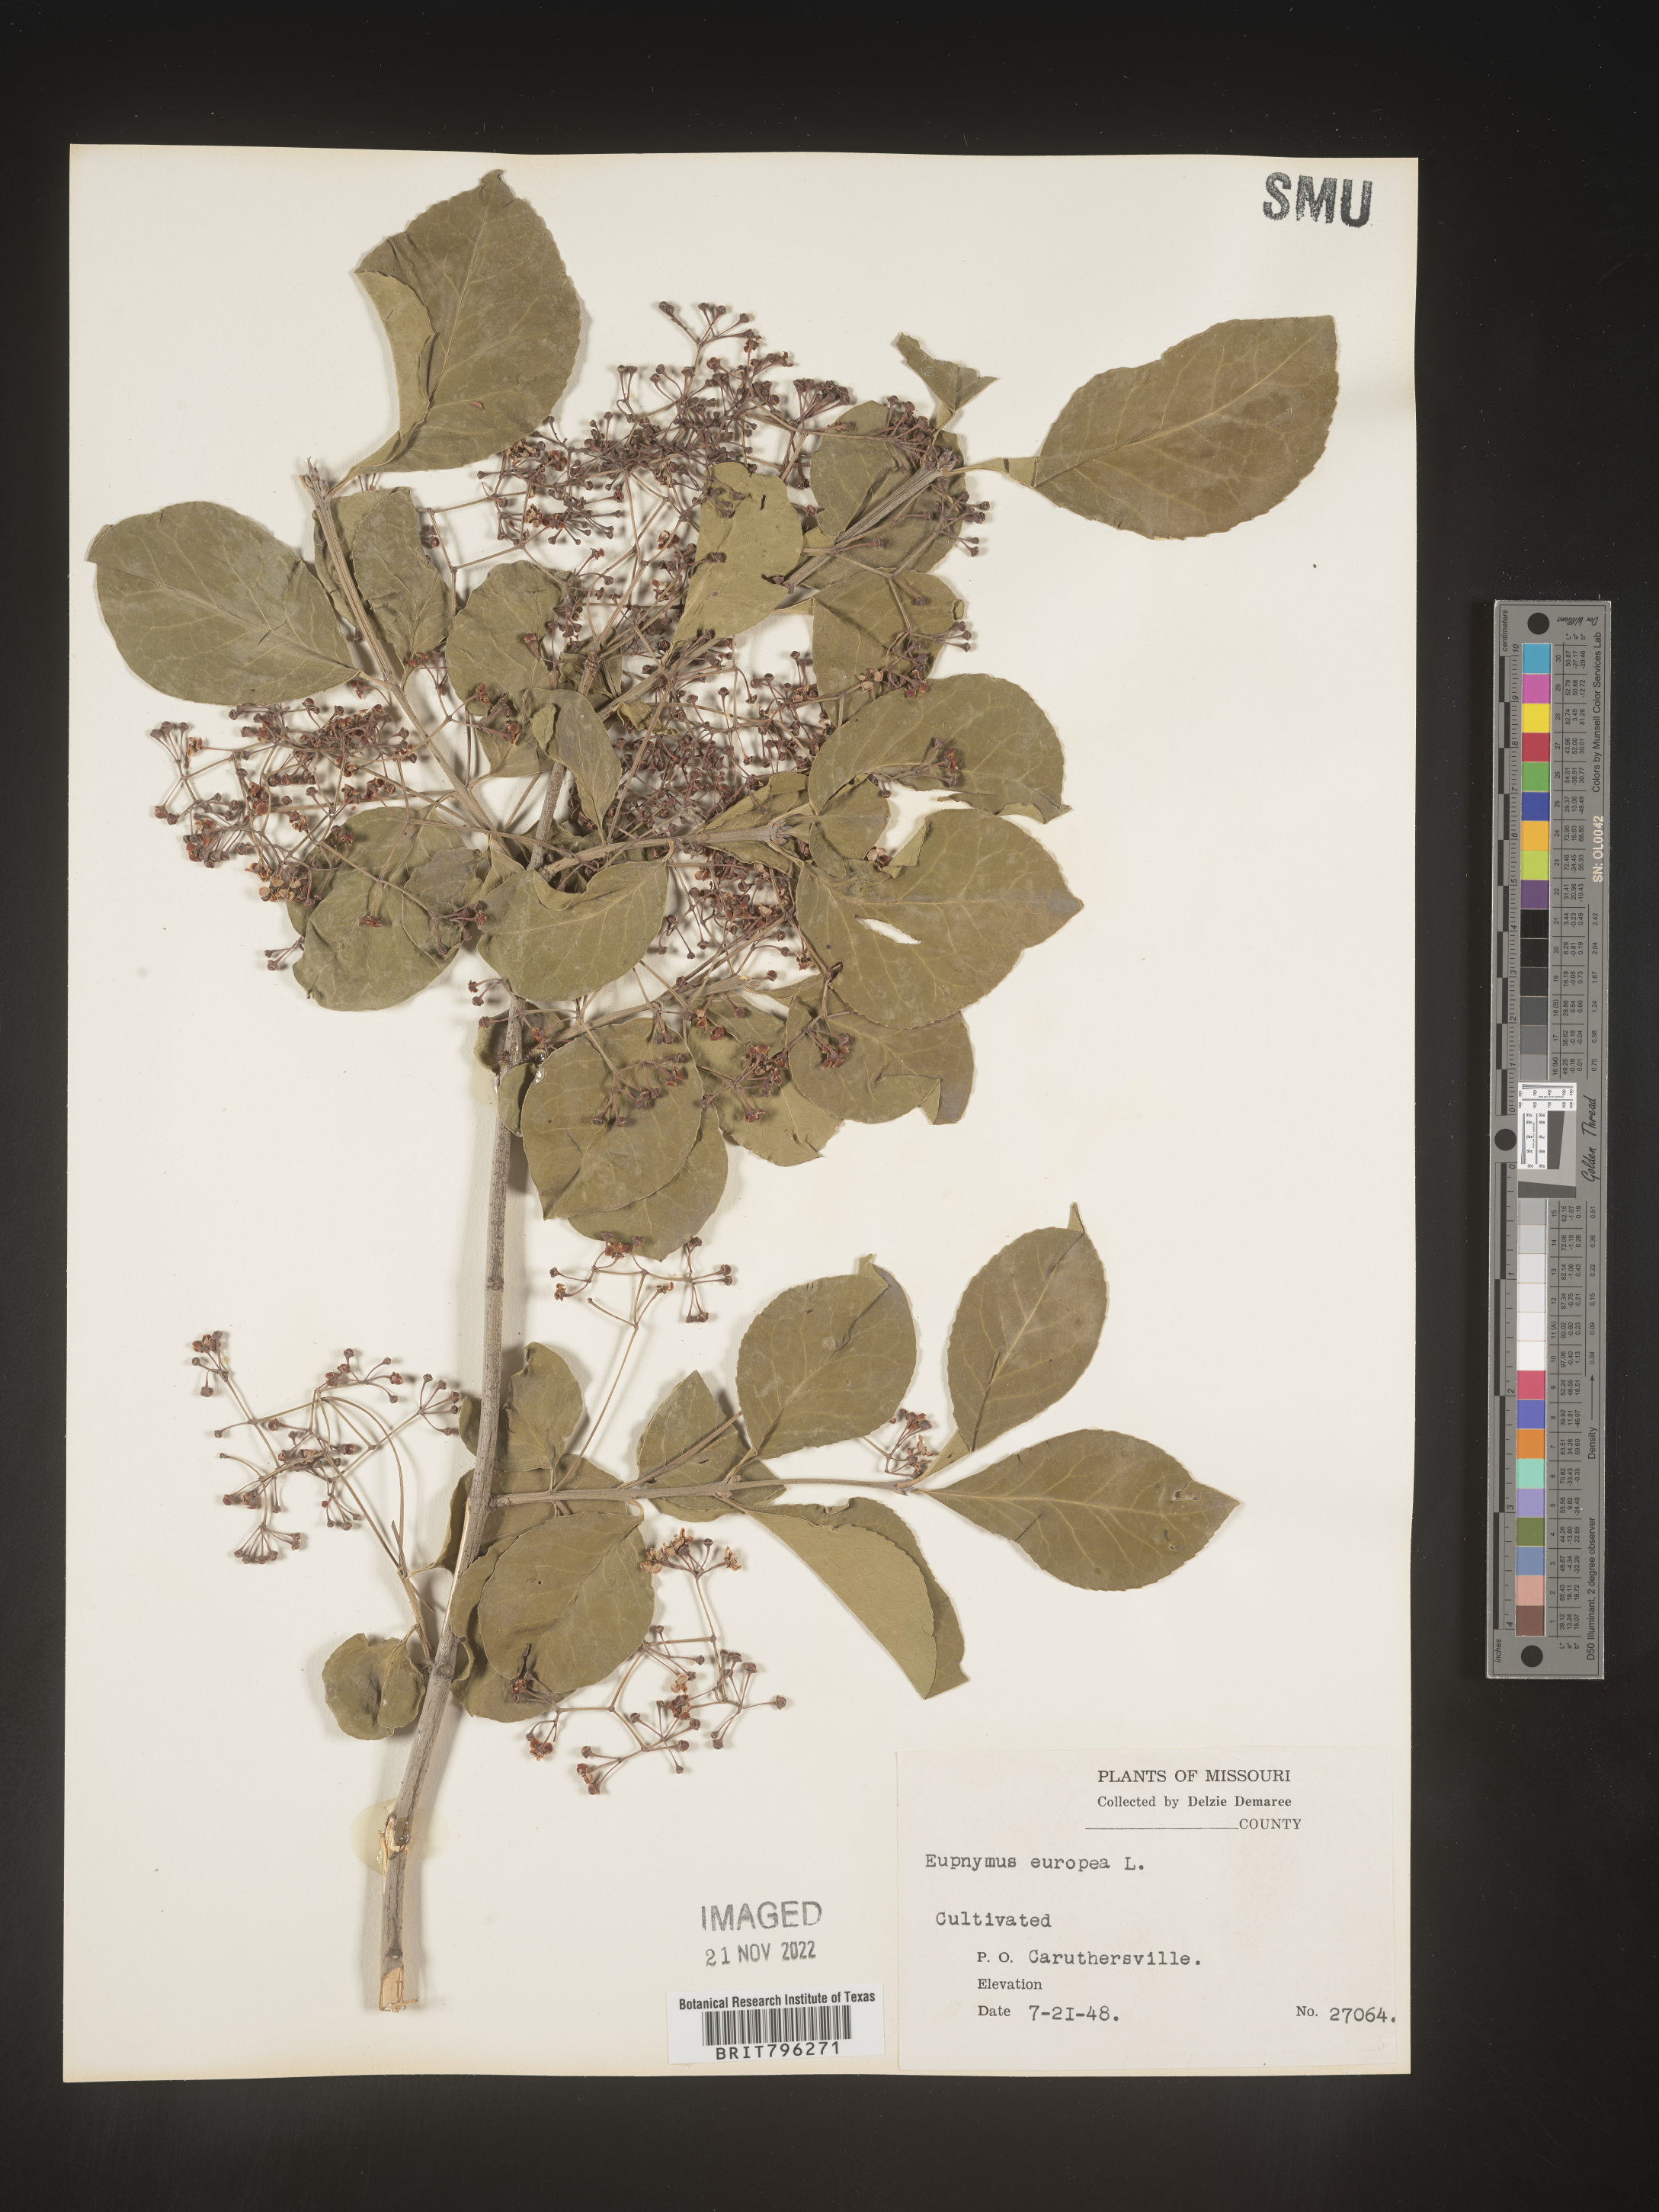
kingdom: Plantae
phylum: Tracheophyta
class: Magnoliopsida
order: Celastrales
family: Celastraceae
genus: Euonymus
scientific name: Euonymus europaeus
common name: Spindle
